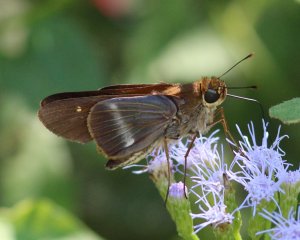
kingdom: Animalia
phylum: Arthropoda
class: Insecta
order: Lepidoptera
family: Hesperiidae
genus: Panoquina
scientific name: Panoquina fusina
